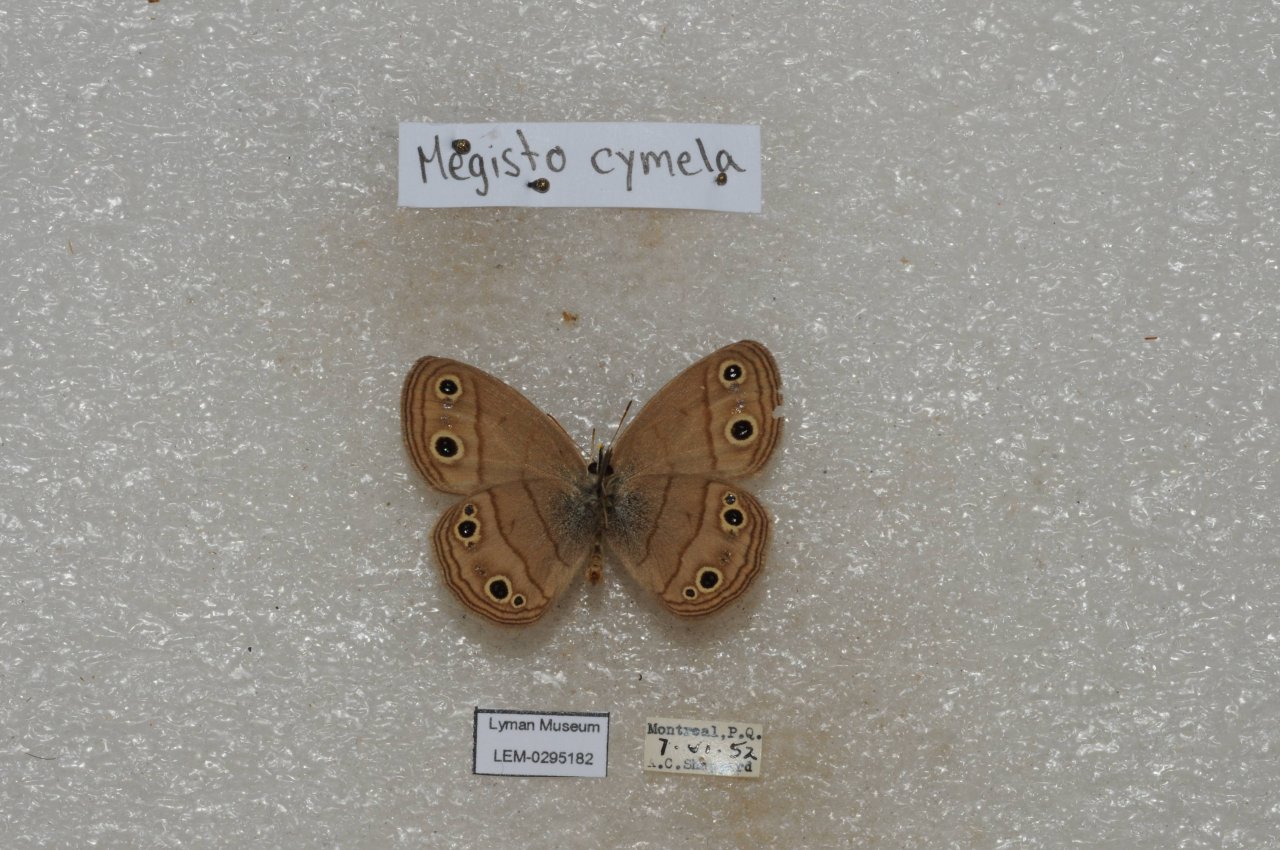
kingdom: Animalia
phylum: Arthropoda
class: Insecta
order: Lepidoptera
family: Nymphalidae
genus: Euptychia
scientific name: Euptychia cymela
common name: Little Wood Satyr
